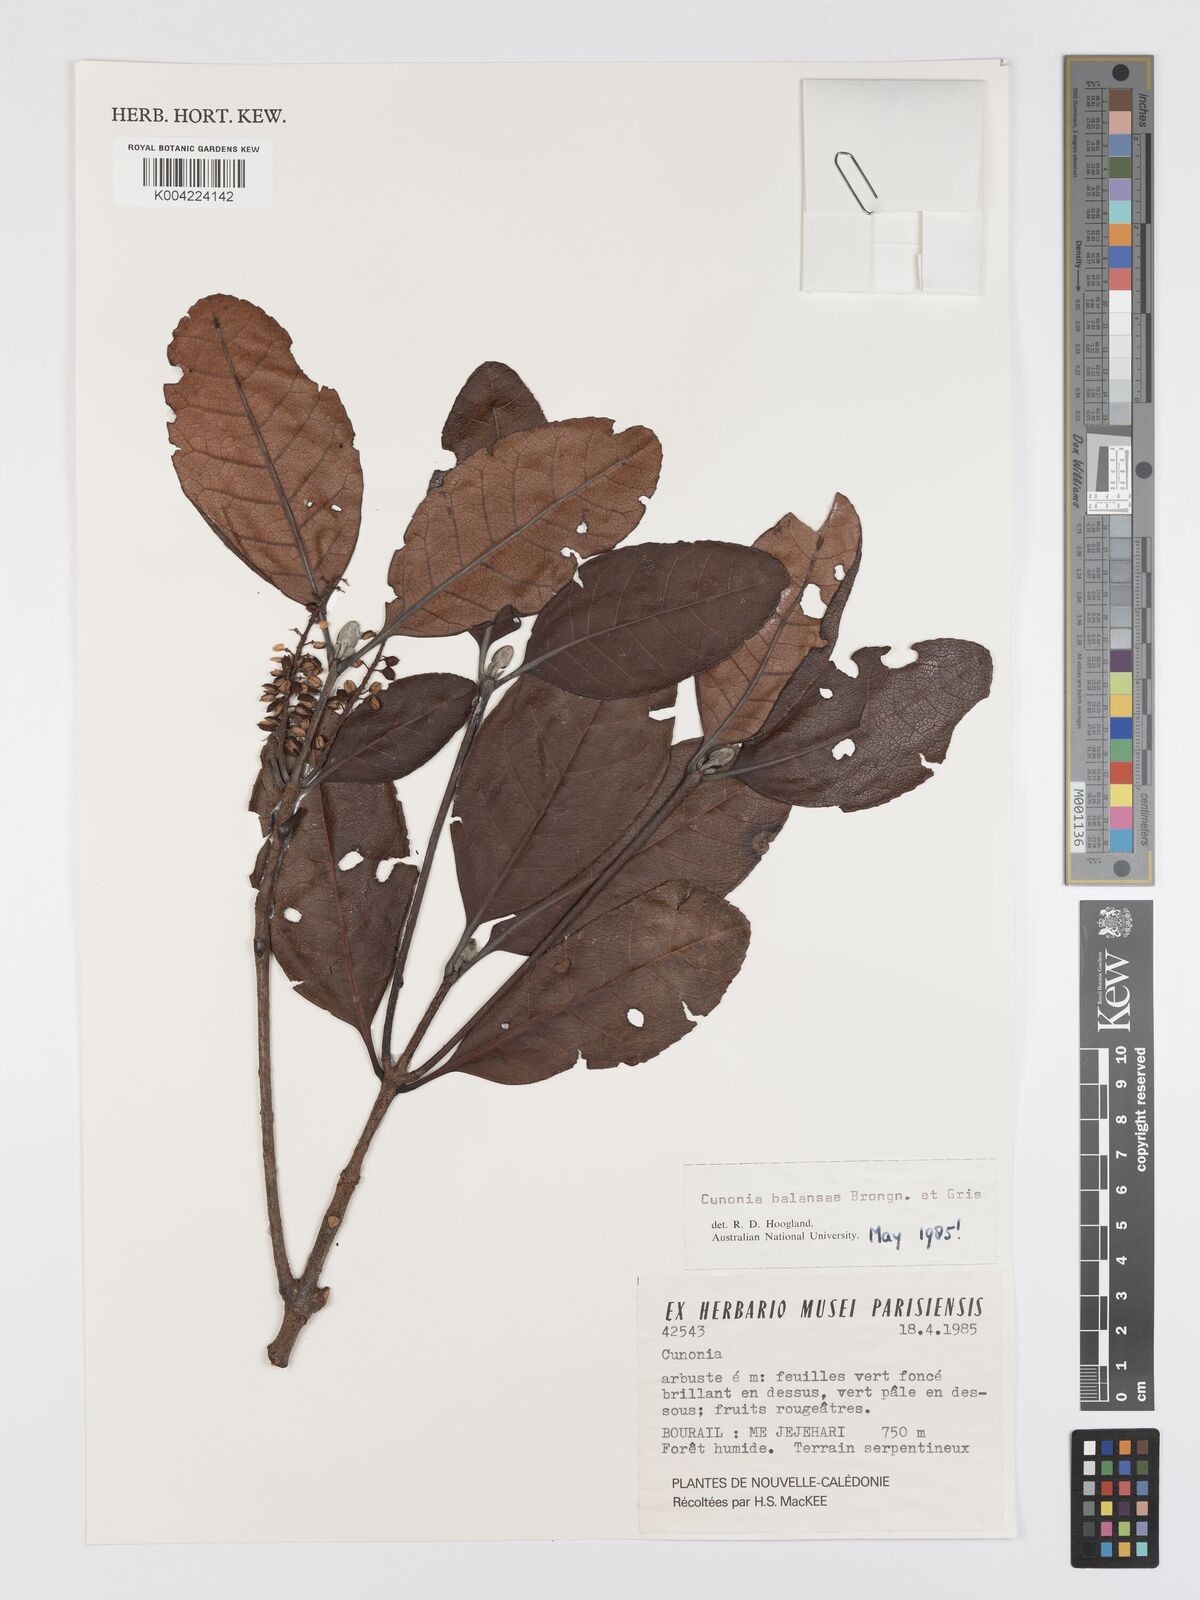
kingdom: Plantae
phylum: Tracheophyta
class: Magnoliopsida
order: Oxalidales
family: Cunoniaceae
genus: Cunonia
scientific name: Cunonia balansae
